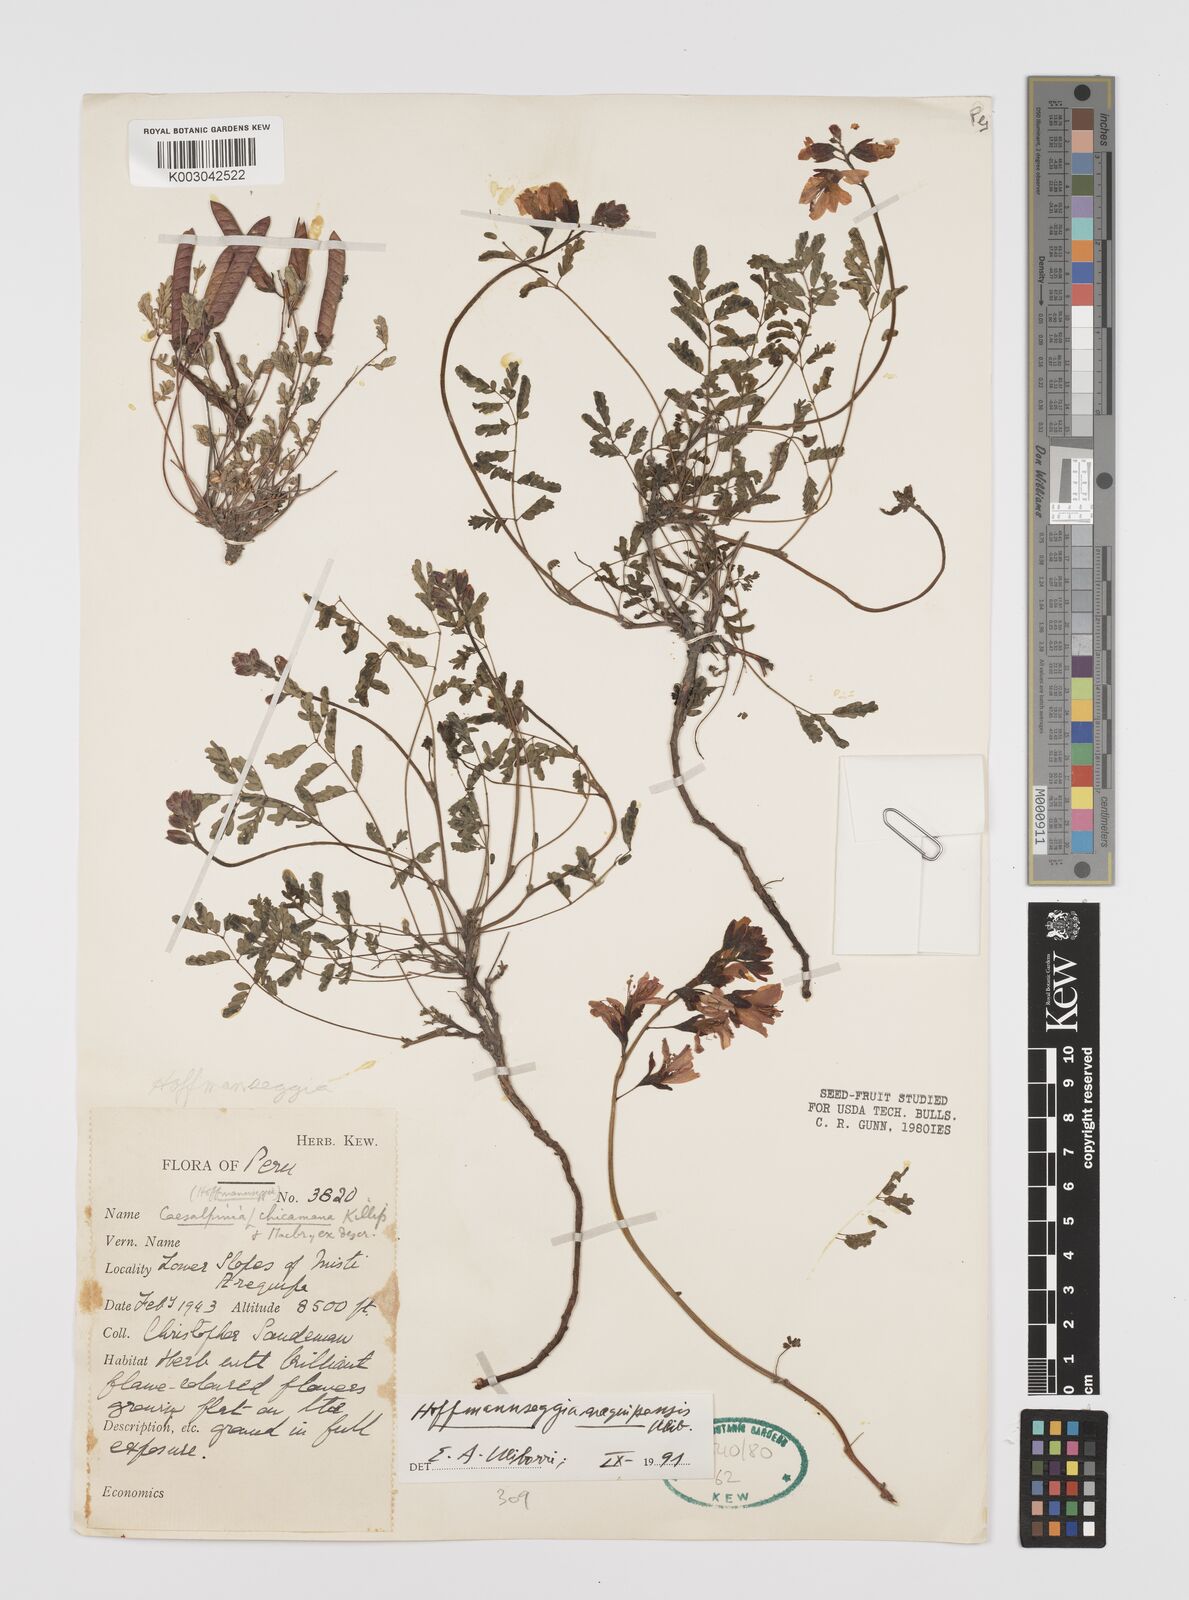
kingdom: Plantae
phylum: Tracheophyta
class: Magnoliopsida
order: Fabales
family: Fabaceae
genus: Hoffmannseggia
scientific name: Hoffmannseggia arequipensis
